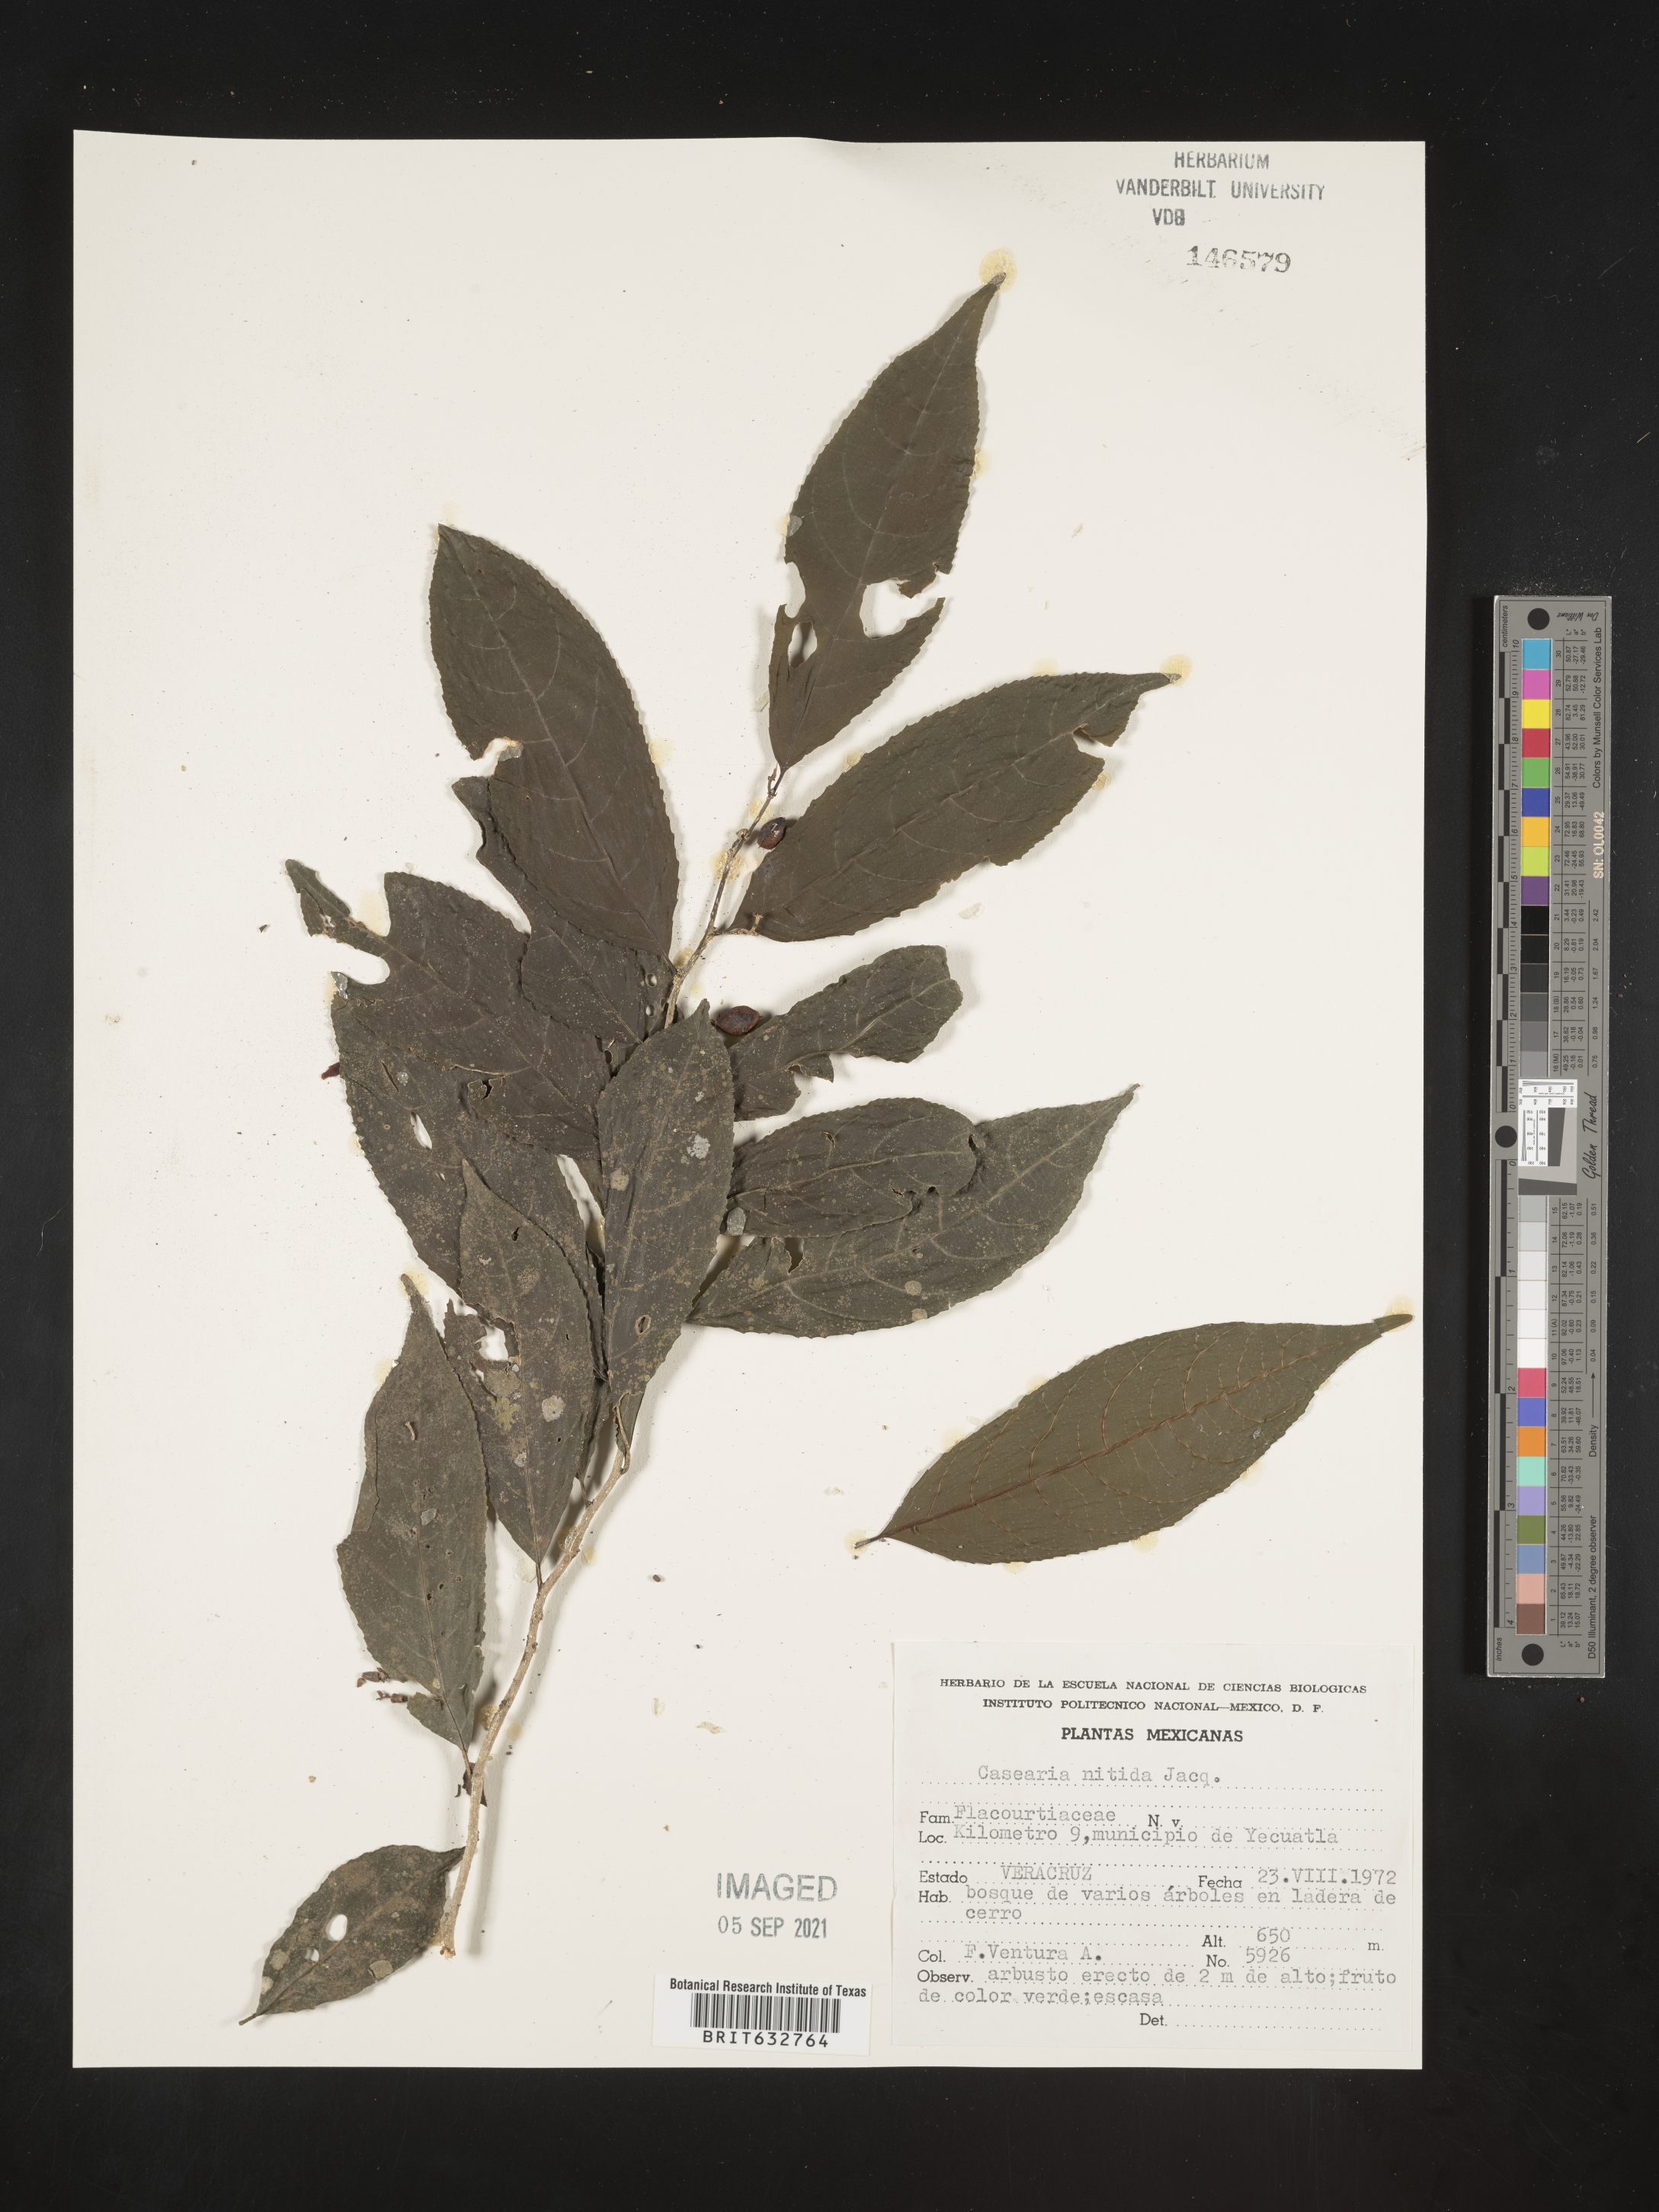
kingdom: Plantae
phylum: Tracheophyta
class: Magnoliopsida
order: Malpighiales
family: Salicaceae
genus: Casearia
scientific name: Casearia
